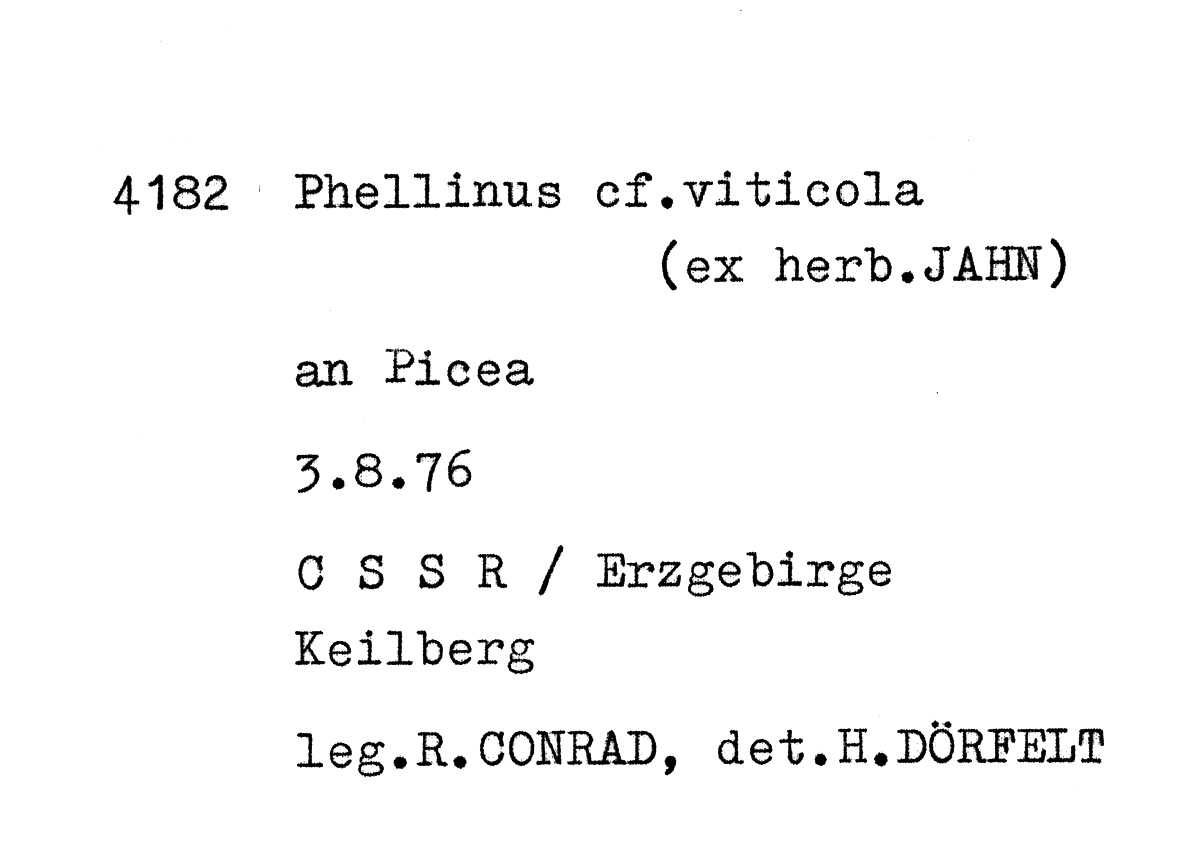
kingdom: Fungi
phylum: Basidiomycota
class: Agaricomycetes
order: Hymenochaetales
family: Hymenochaetaceae
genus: Phellinus
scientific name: Phellinus viticola
